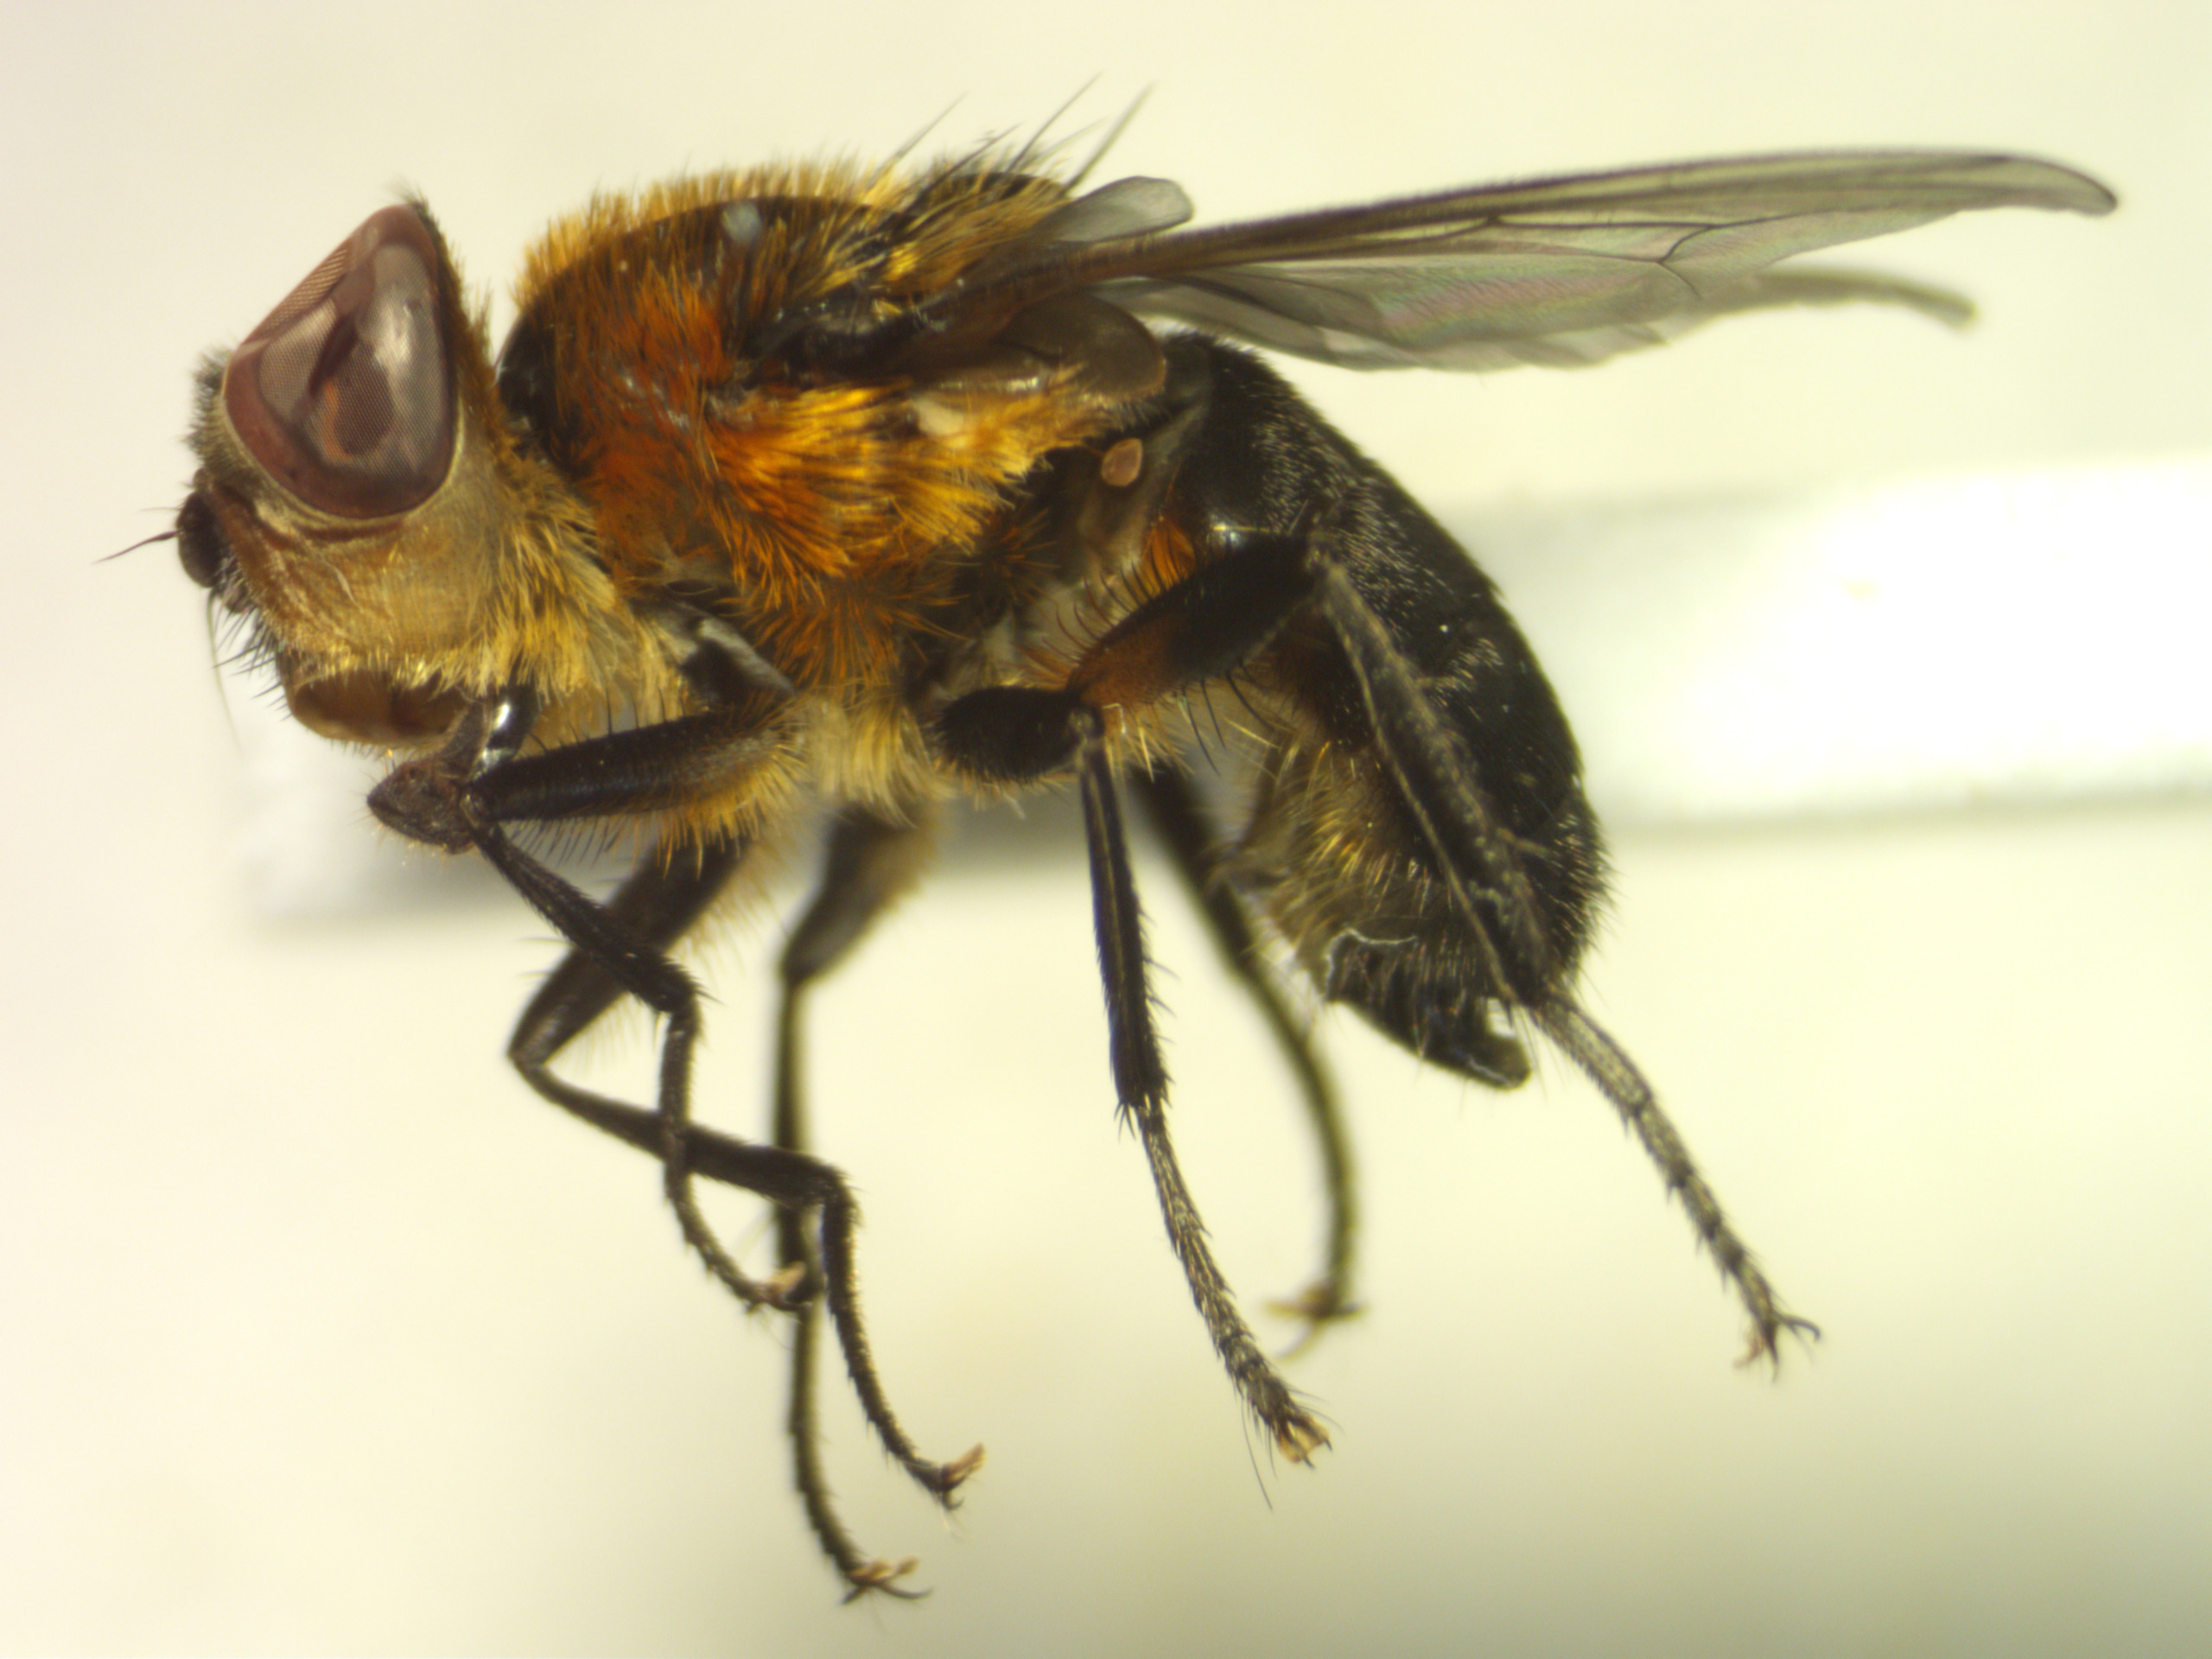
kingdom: Animalia
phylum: Arthropoda
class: Insecta
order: Diptera
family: Tachinidae
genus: Phasia
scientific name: Phasia hemiptera
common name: Blåvinget pragtsnylteflue
